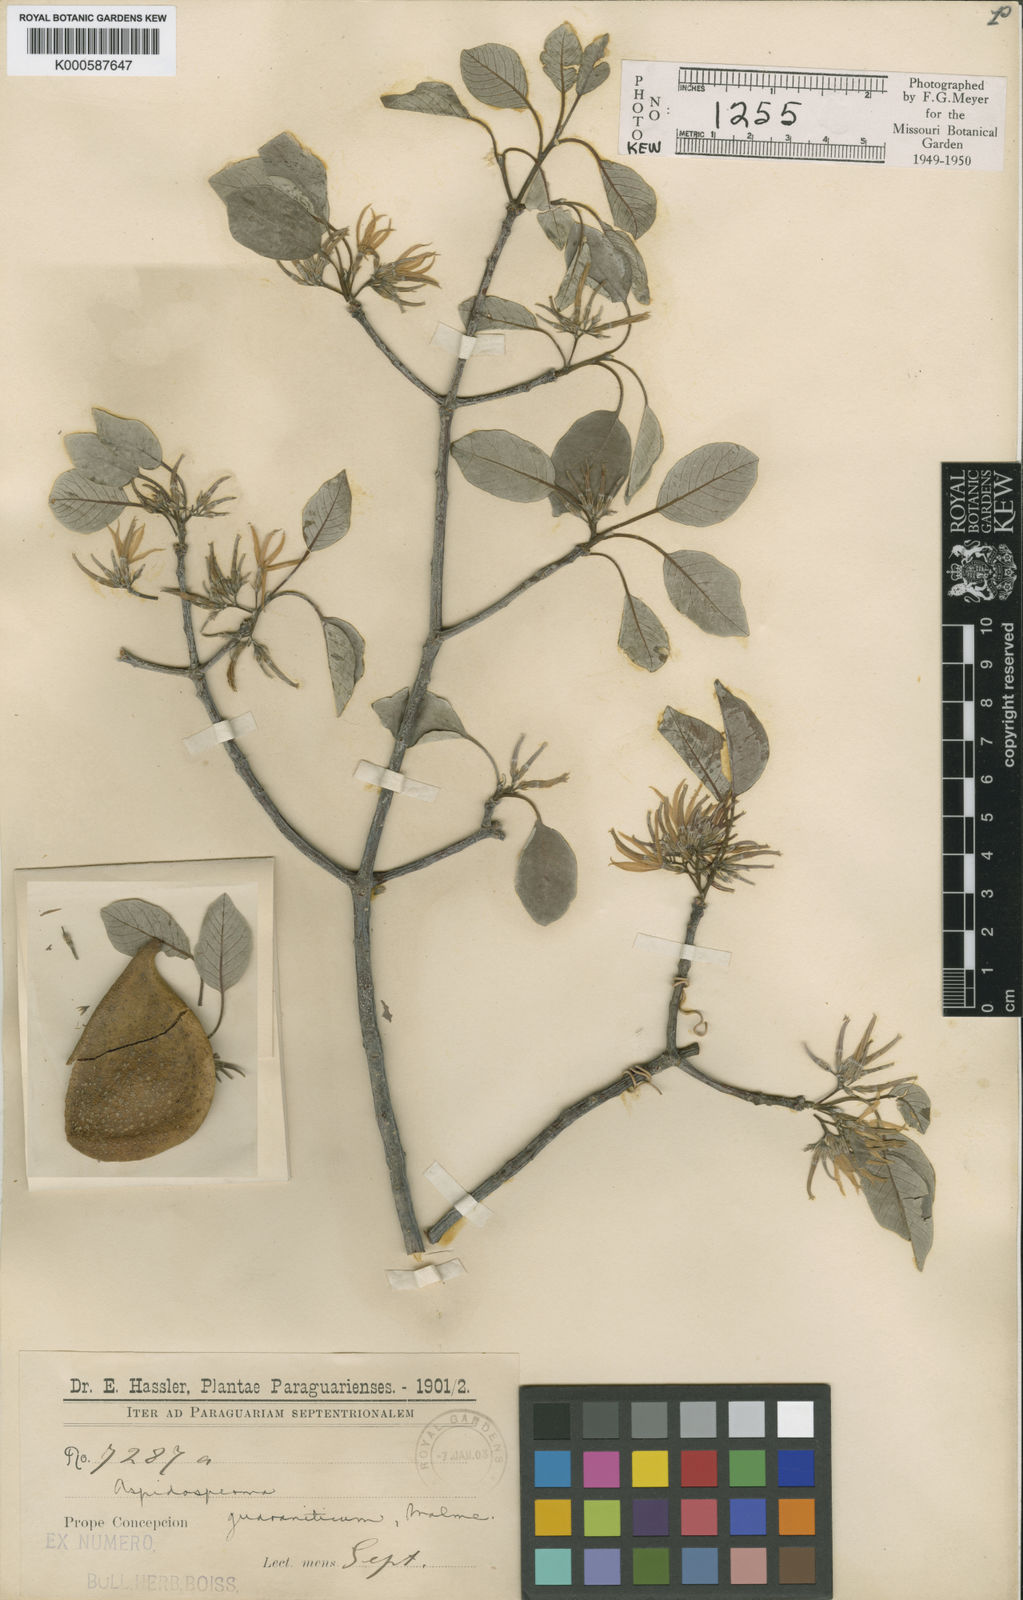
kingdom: Plantae
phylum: Tracheophyta
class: Magnoliopsida
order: Gentianales
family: Apocynaceae
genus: Aspidosperma
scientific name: Aspidosperma pyrifolium
